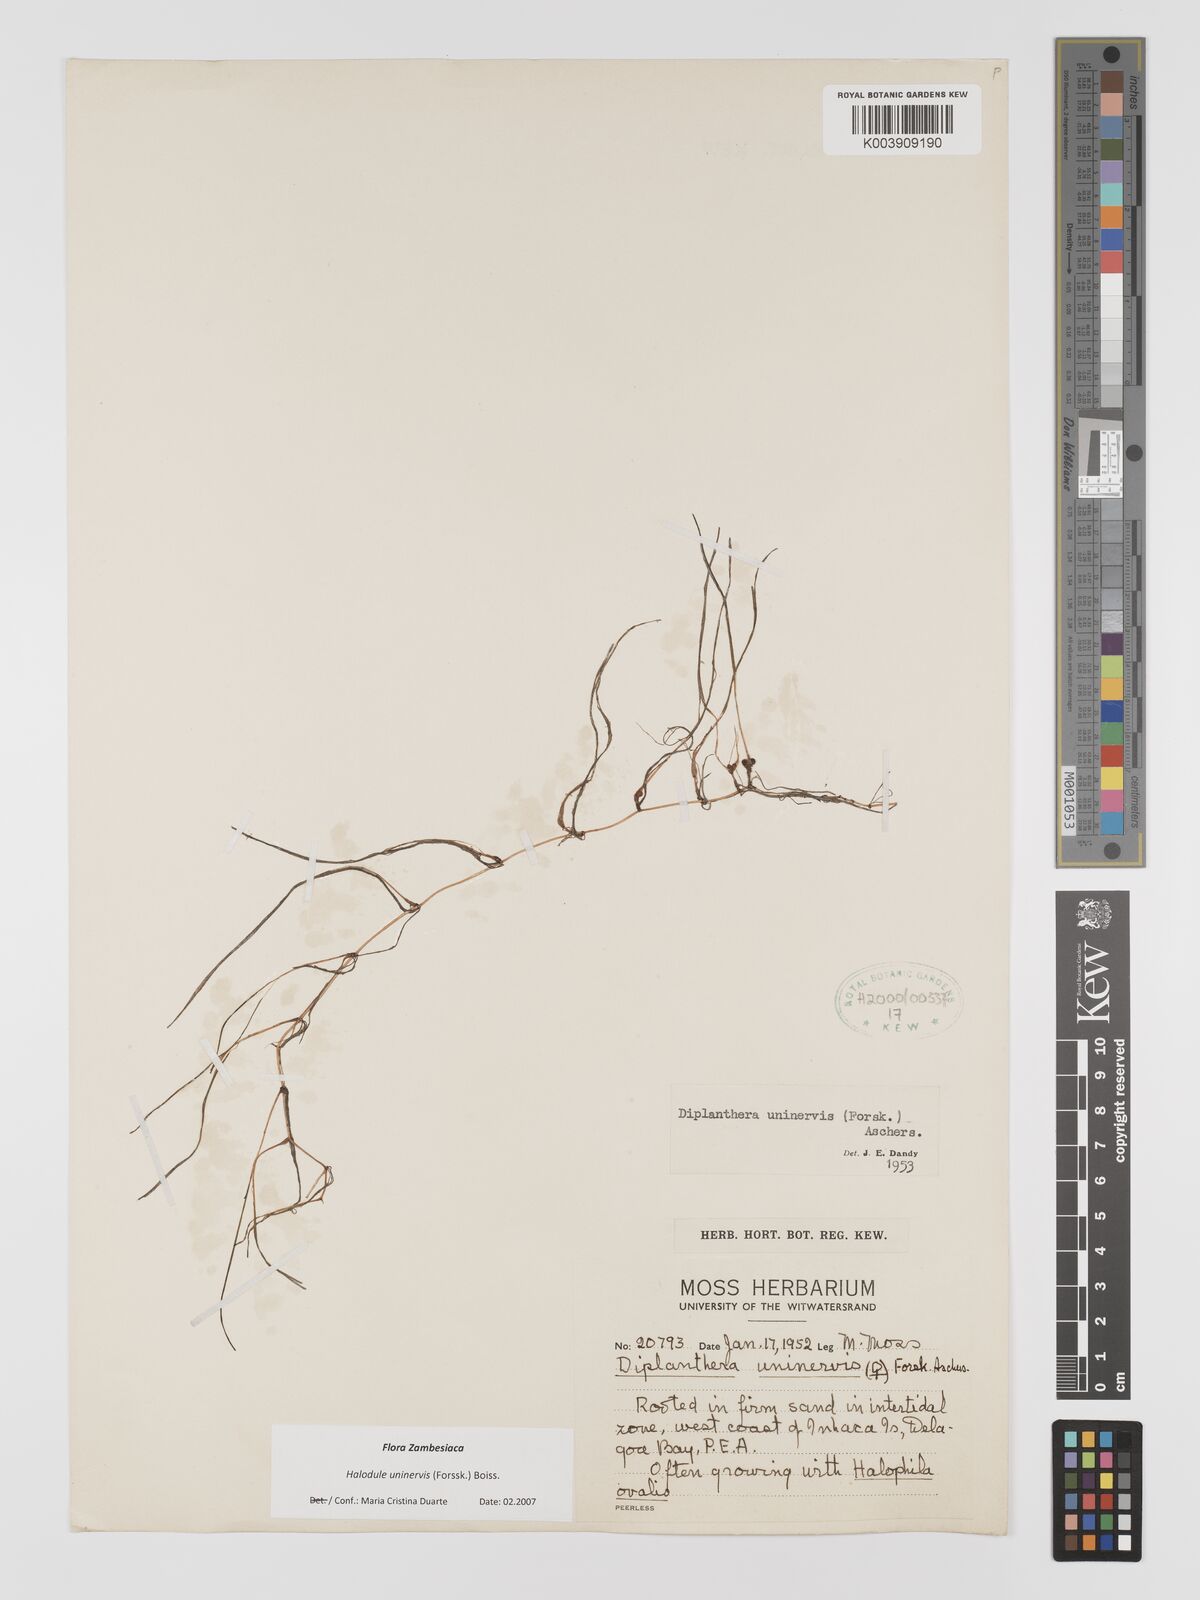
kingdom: Plantae
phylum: Tracheophyta
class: Liliopsida
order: Alismatales
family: Cymodoceaceae
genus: Halodule
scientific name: Halodule uninervis
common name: Narrowleaf seagrass
